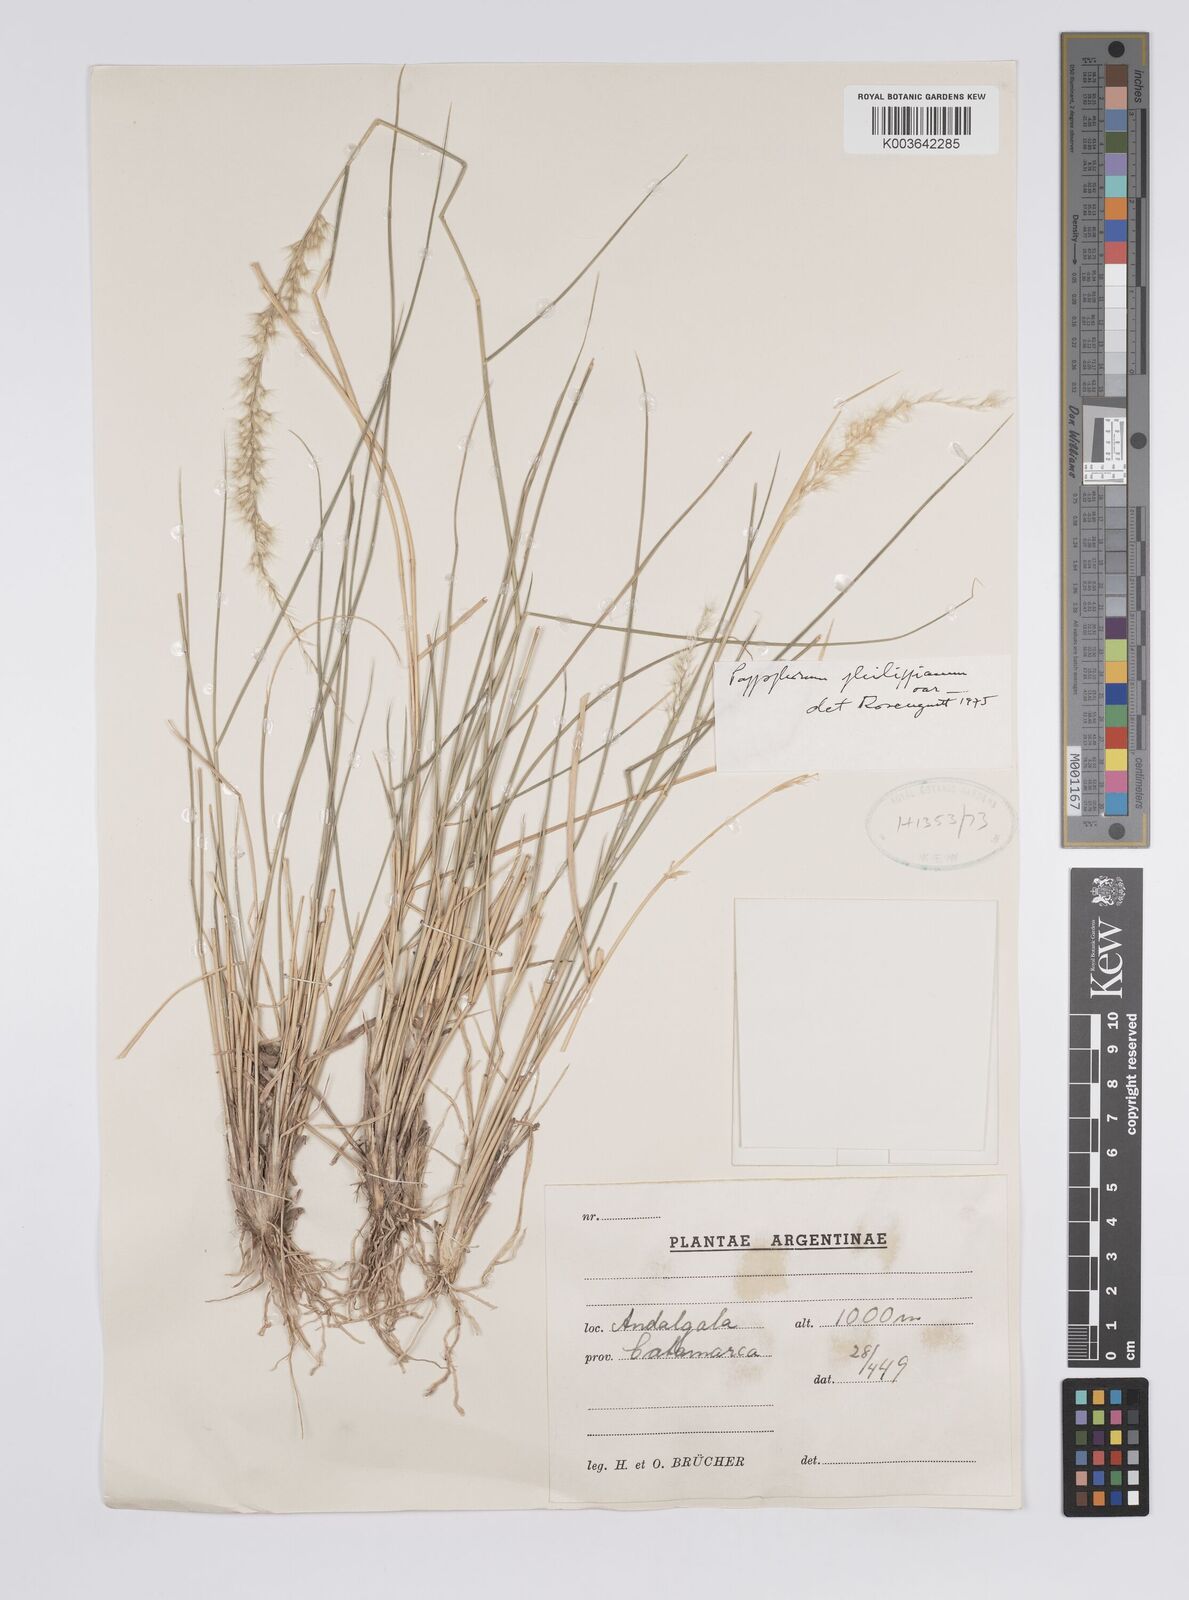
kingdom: Plantae
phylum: Tracheophyta
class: Liliopsida
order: Poales
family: Poaceae
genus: Pappophorum
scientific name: Pappophorum philippianum
